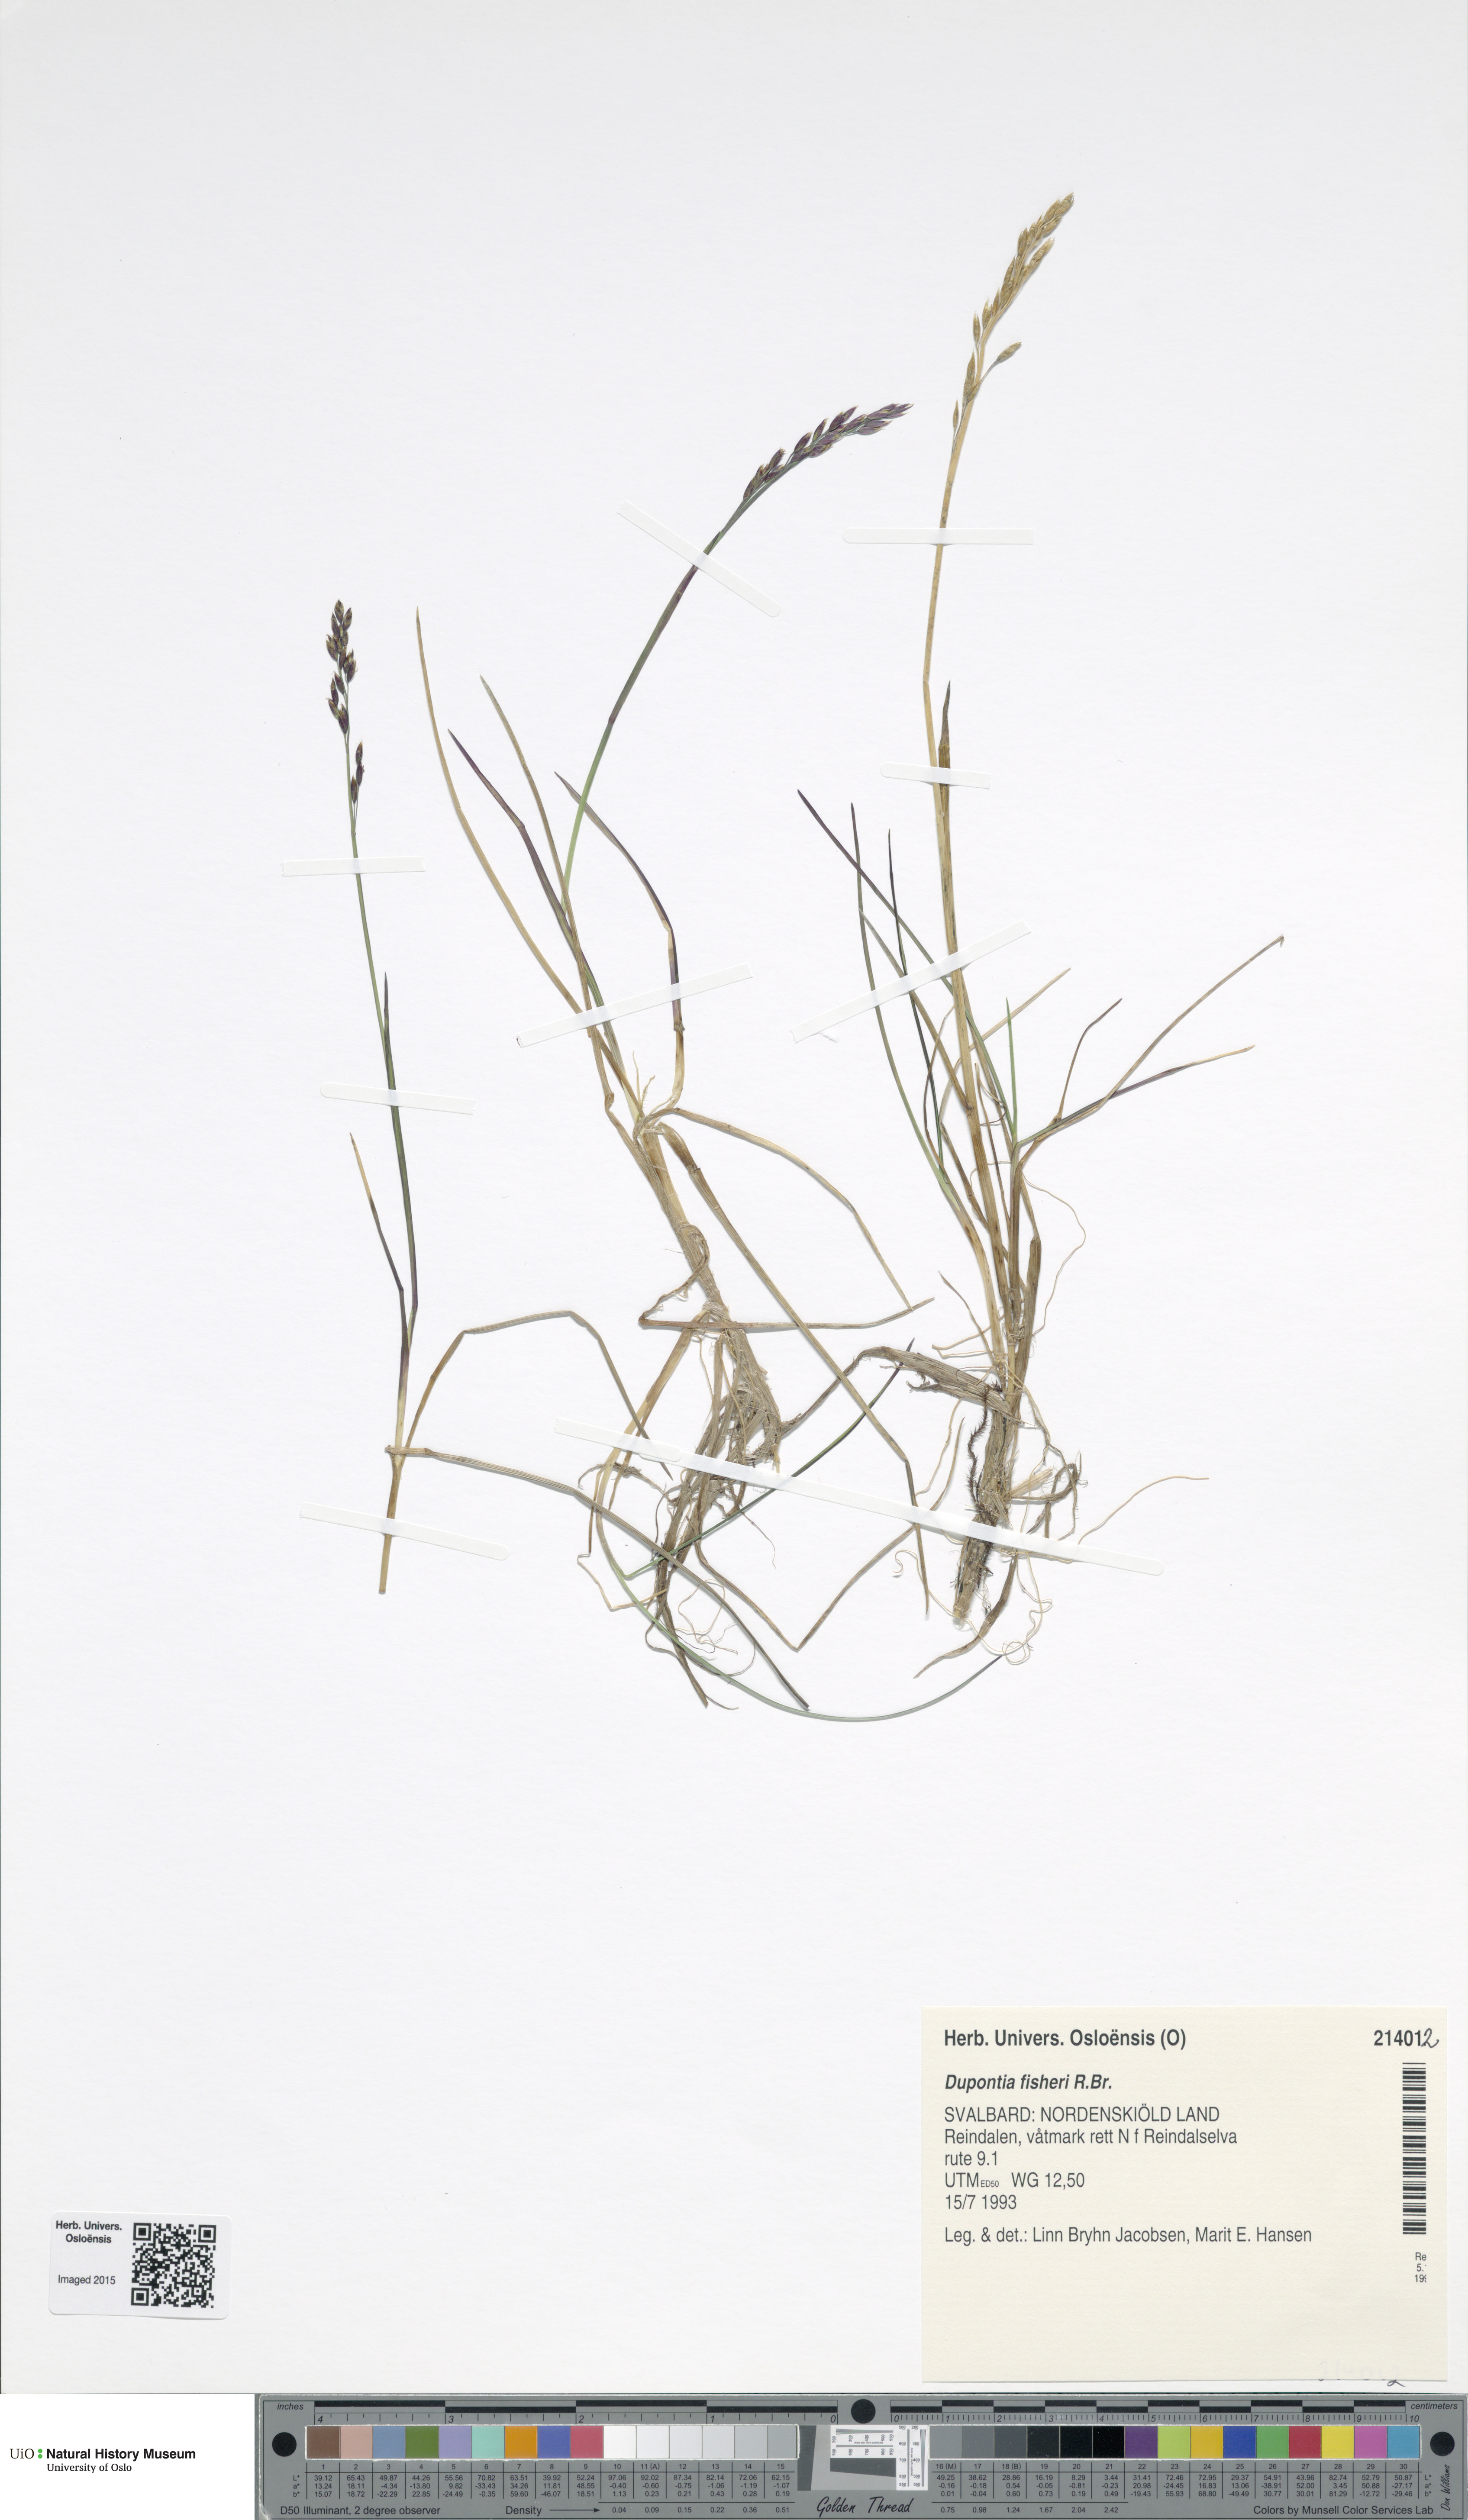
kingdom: Plantae
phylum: Tracheophyta
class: Liliopsida
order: Poales
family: Poaceae
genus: Dupontia
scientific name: Dupontia fisheri
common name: Tundra grass
